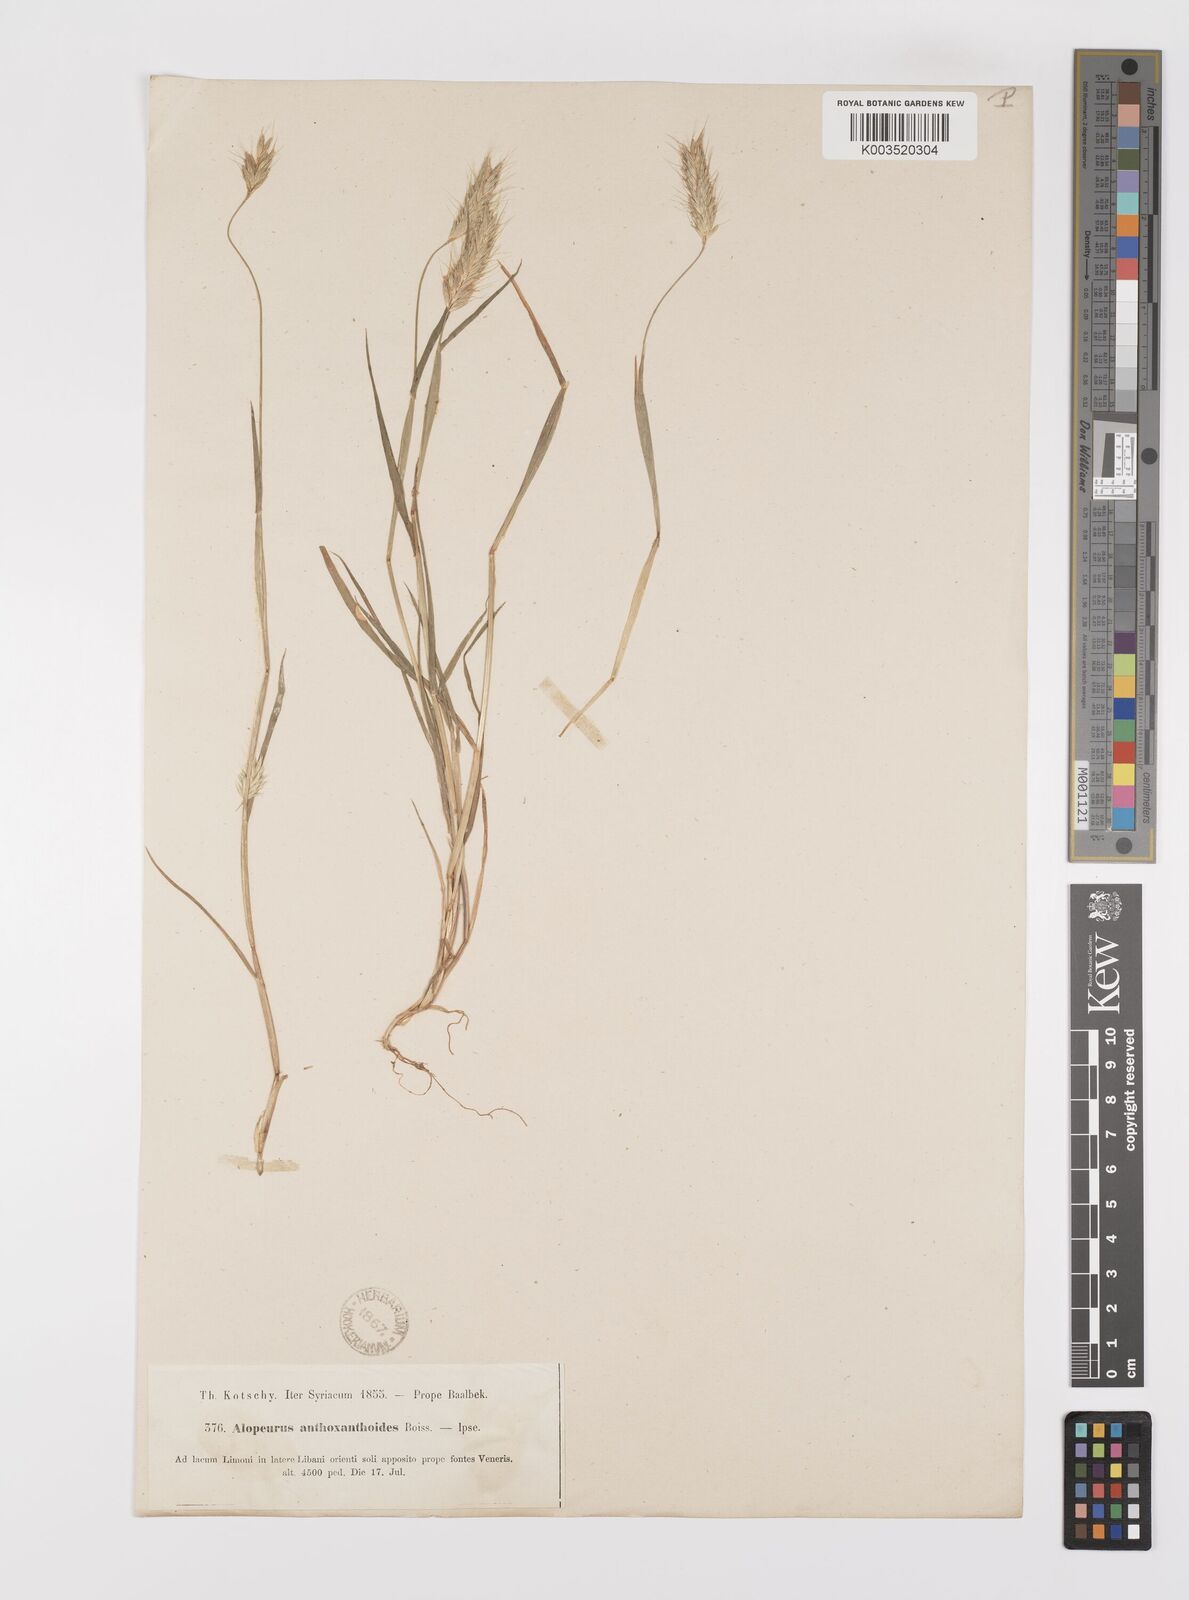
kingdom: Plantae
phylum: Tracheophyta
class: Liliopsida
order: Poales
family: Poaceae
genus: Alopecurus
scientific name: Alopecurus utriculatus
